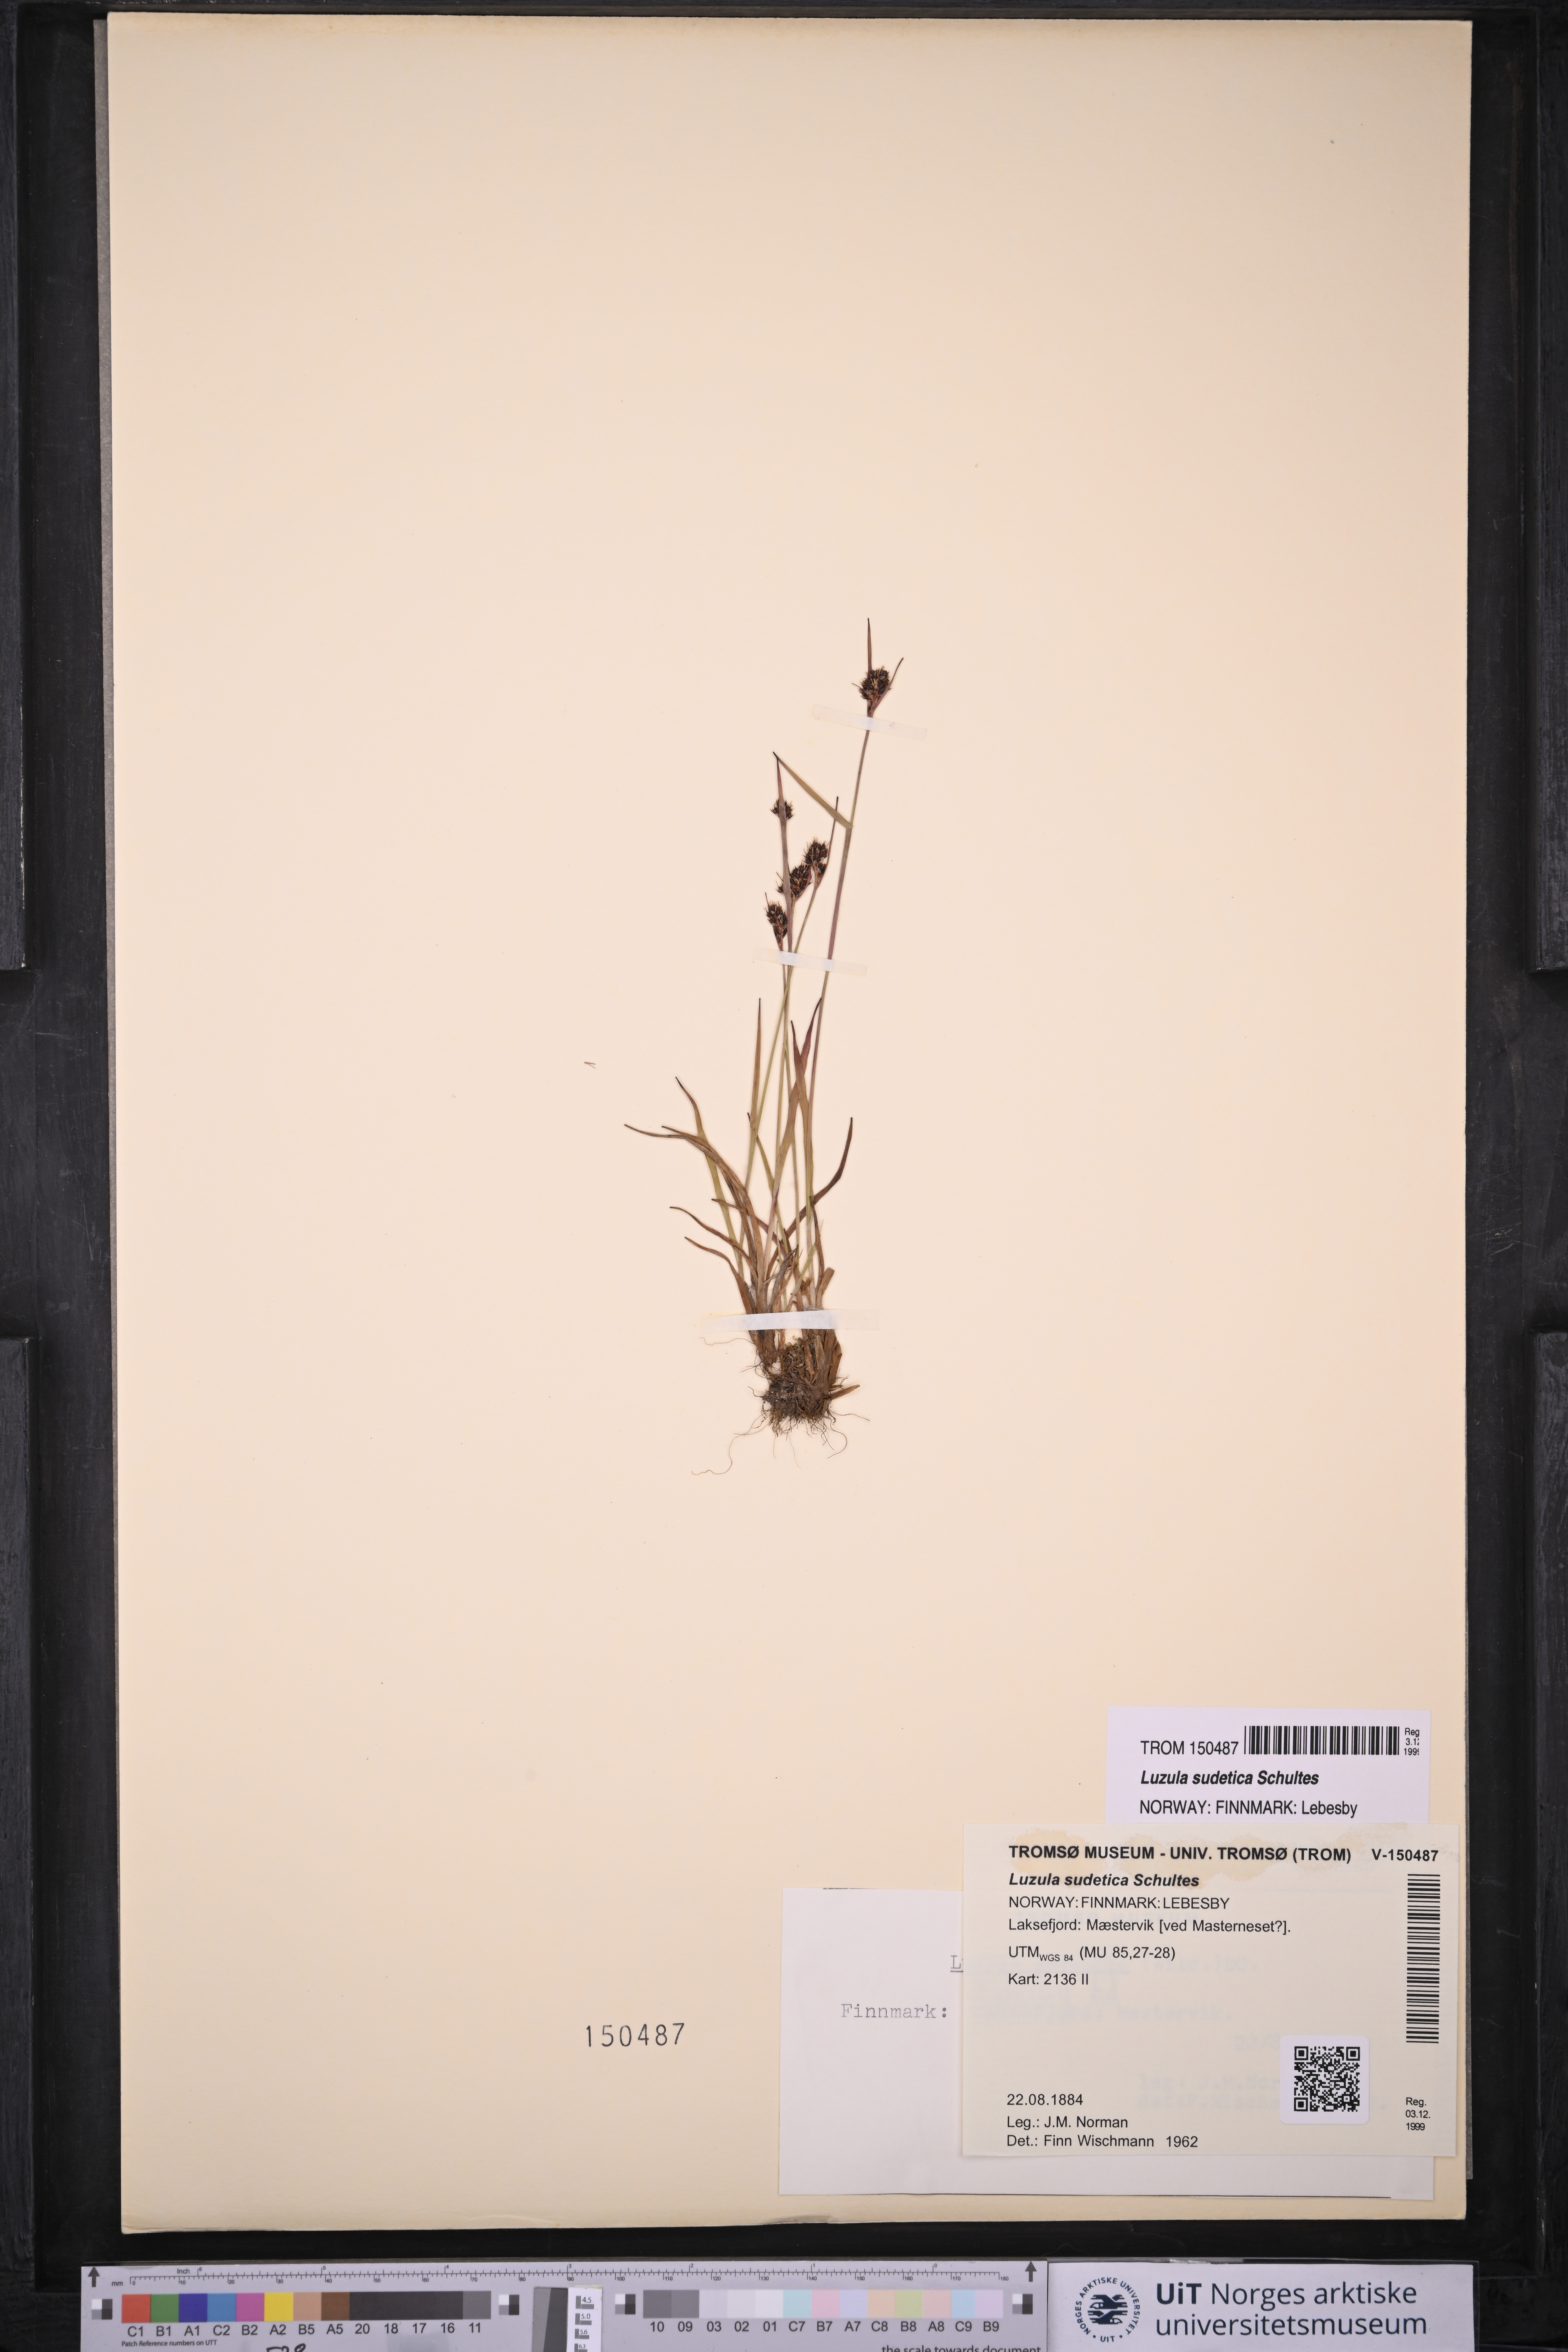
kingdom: Plantae
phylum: Tracheophyta
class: Liliopsida
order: Poales
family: Juncaceae
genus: Luzula
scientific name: Luzula sudetica
